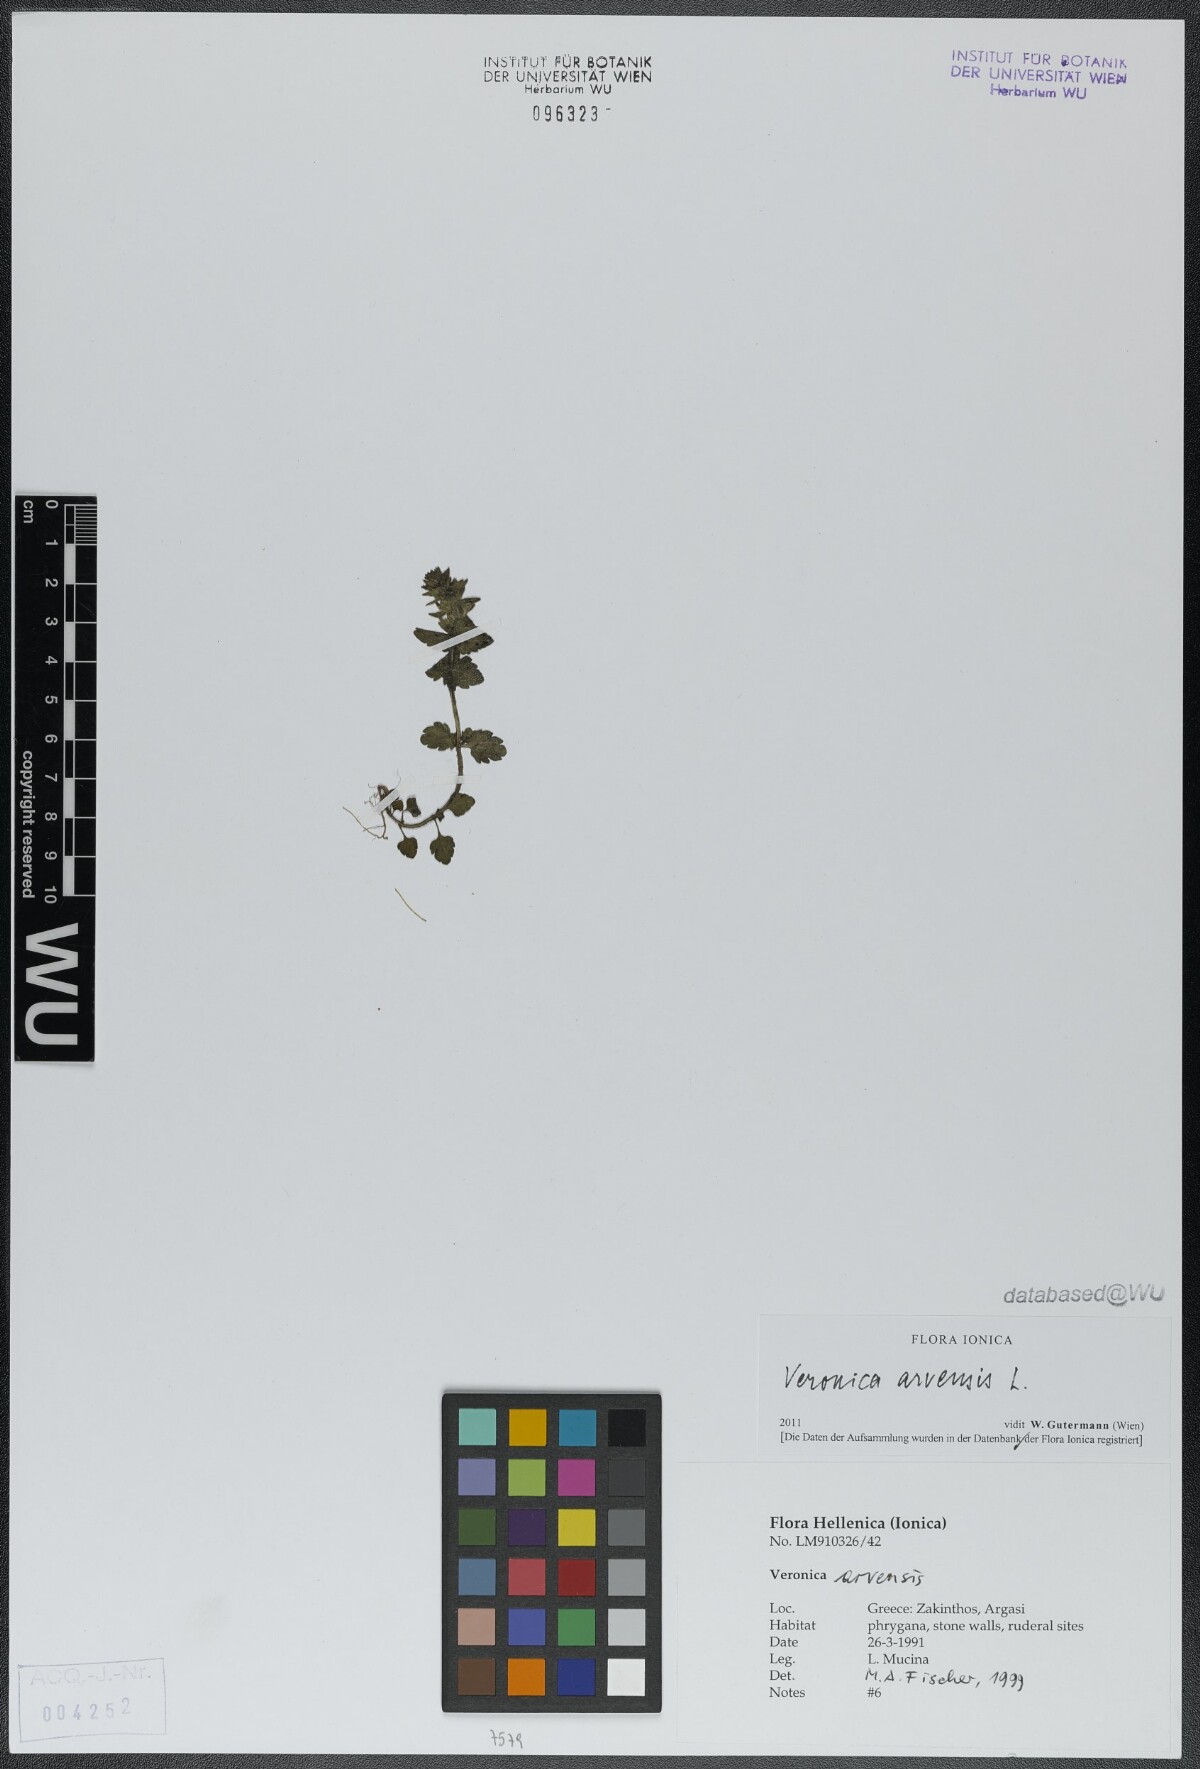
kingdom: Plantae
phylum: Tracheophyta
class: Magnoliopsida
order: Lamiales
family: Plantaginaceae
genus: Veronica
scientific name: Veronica arvensis
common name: Corn speedwell
